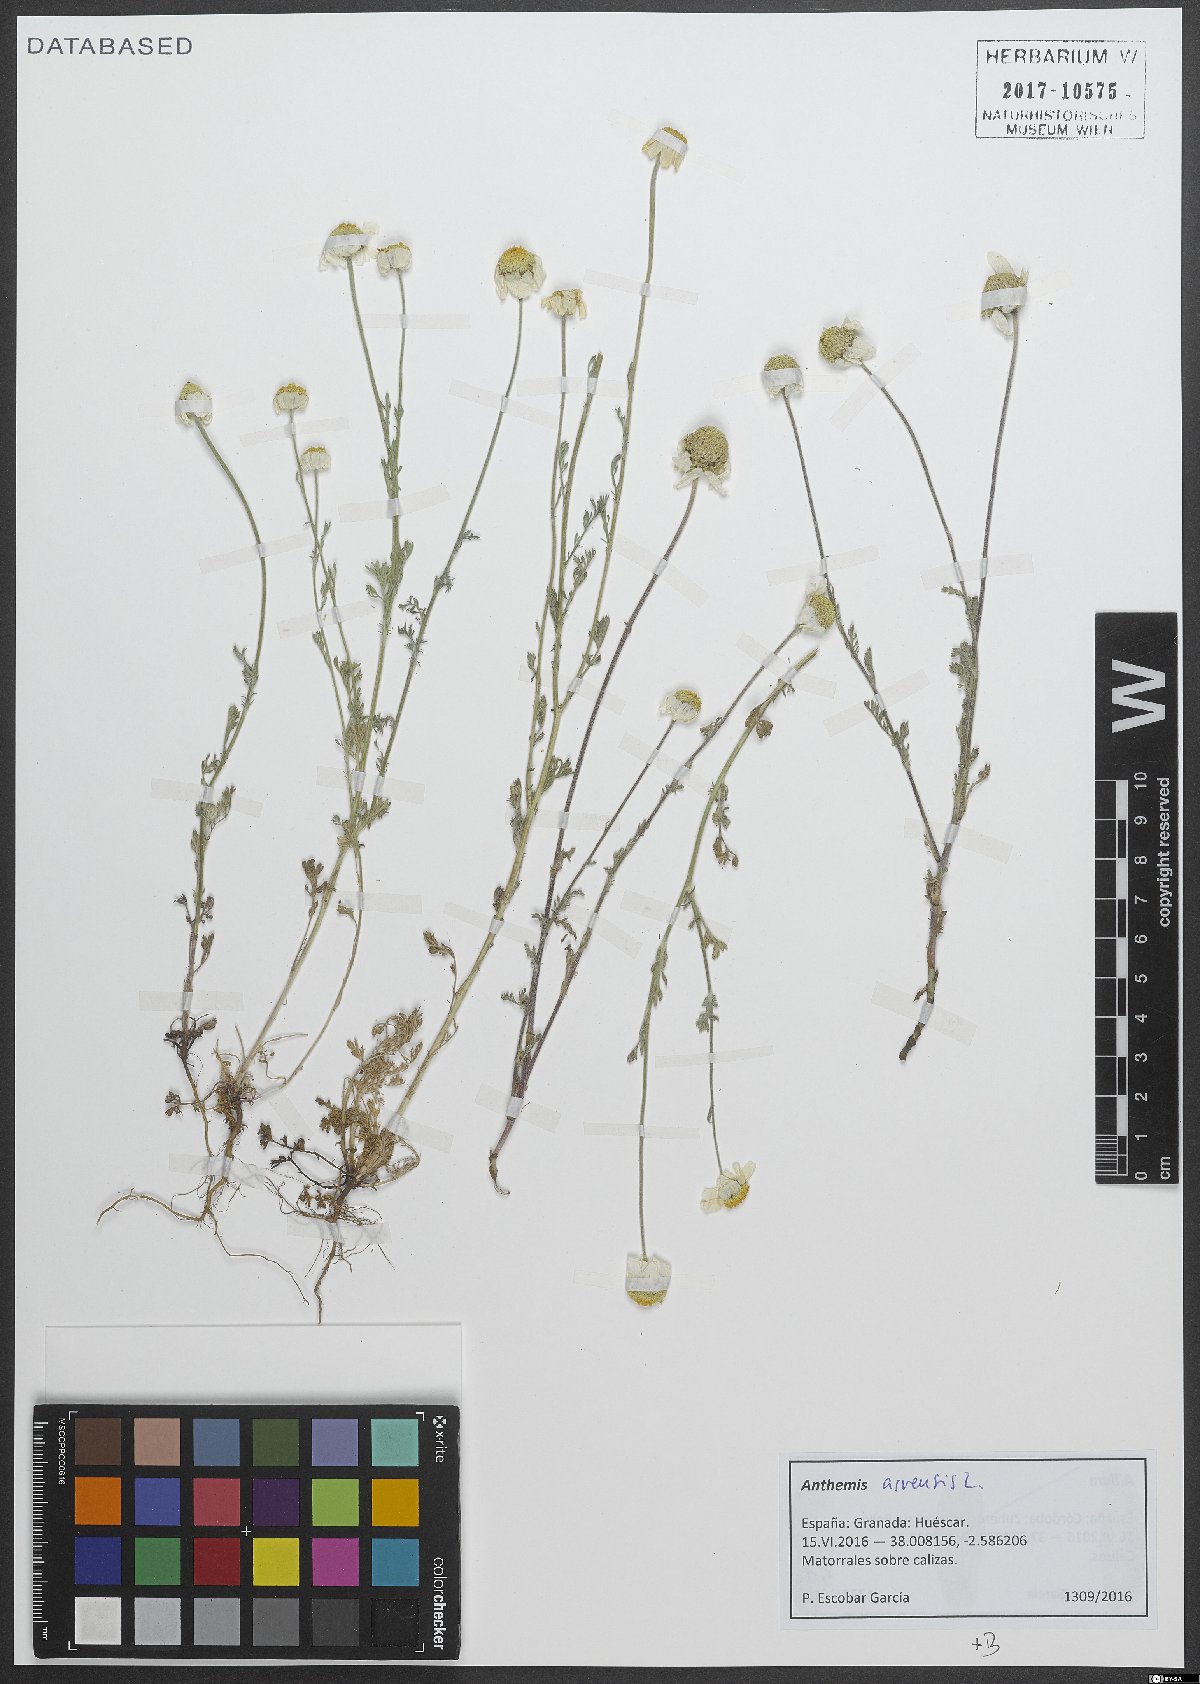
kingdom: Plantae
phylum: Tracheophyta
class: Magnoliopsida
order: Asterales
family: Asteraceae
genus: Anthemis
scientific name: Anthemis arvensis
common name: Corn chamomile
